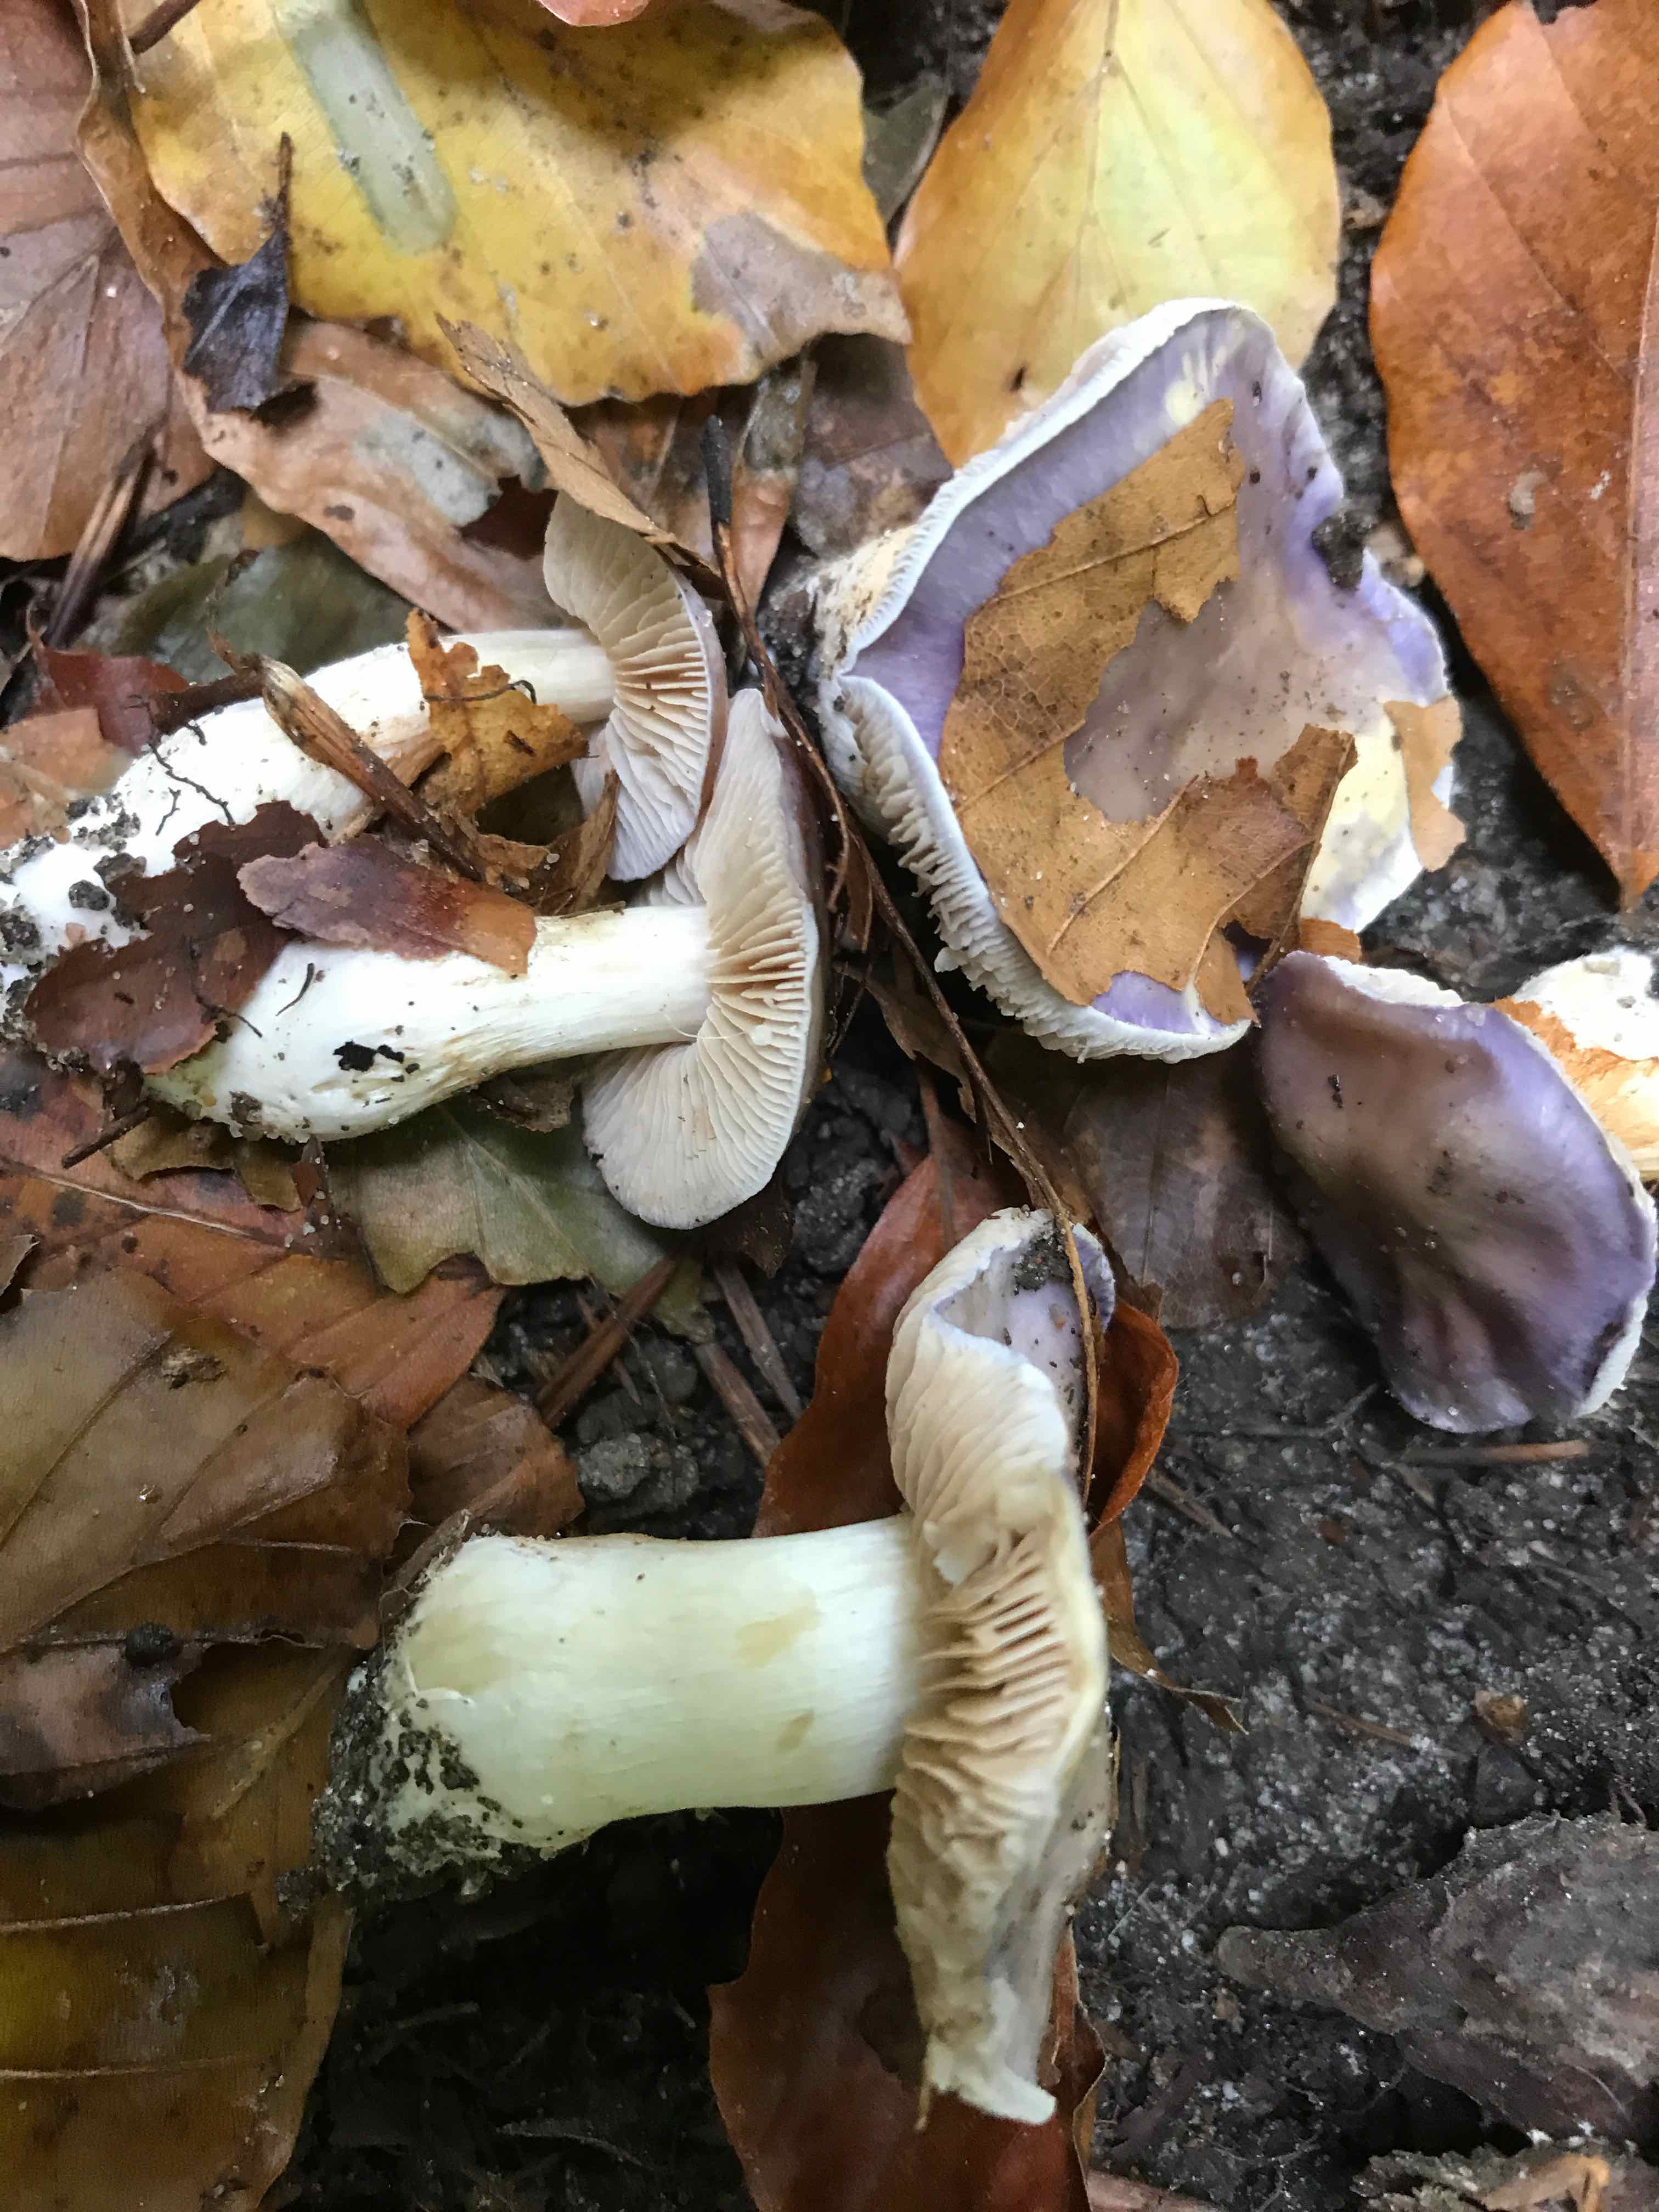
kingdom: Fungi
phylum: Basidiomycota
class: Agaricomycetes
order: Agaricales
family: Cortinariaceae
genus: Thaxterogaster
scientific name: Thaxterogaster croceocoeruleus
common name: blågullig slørhat
